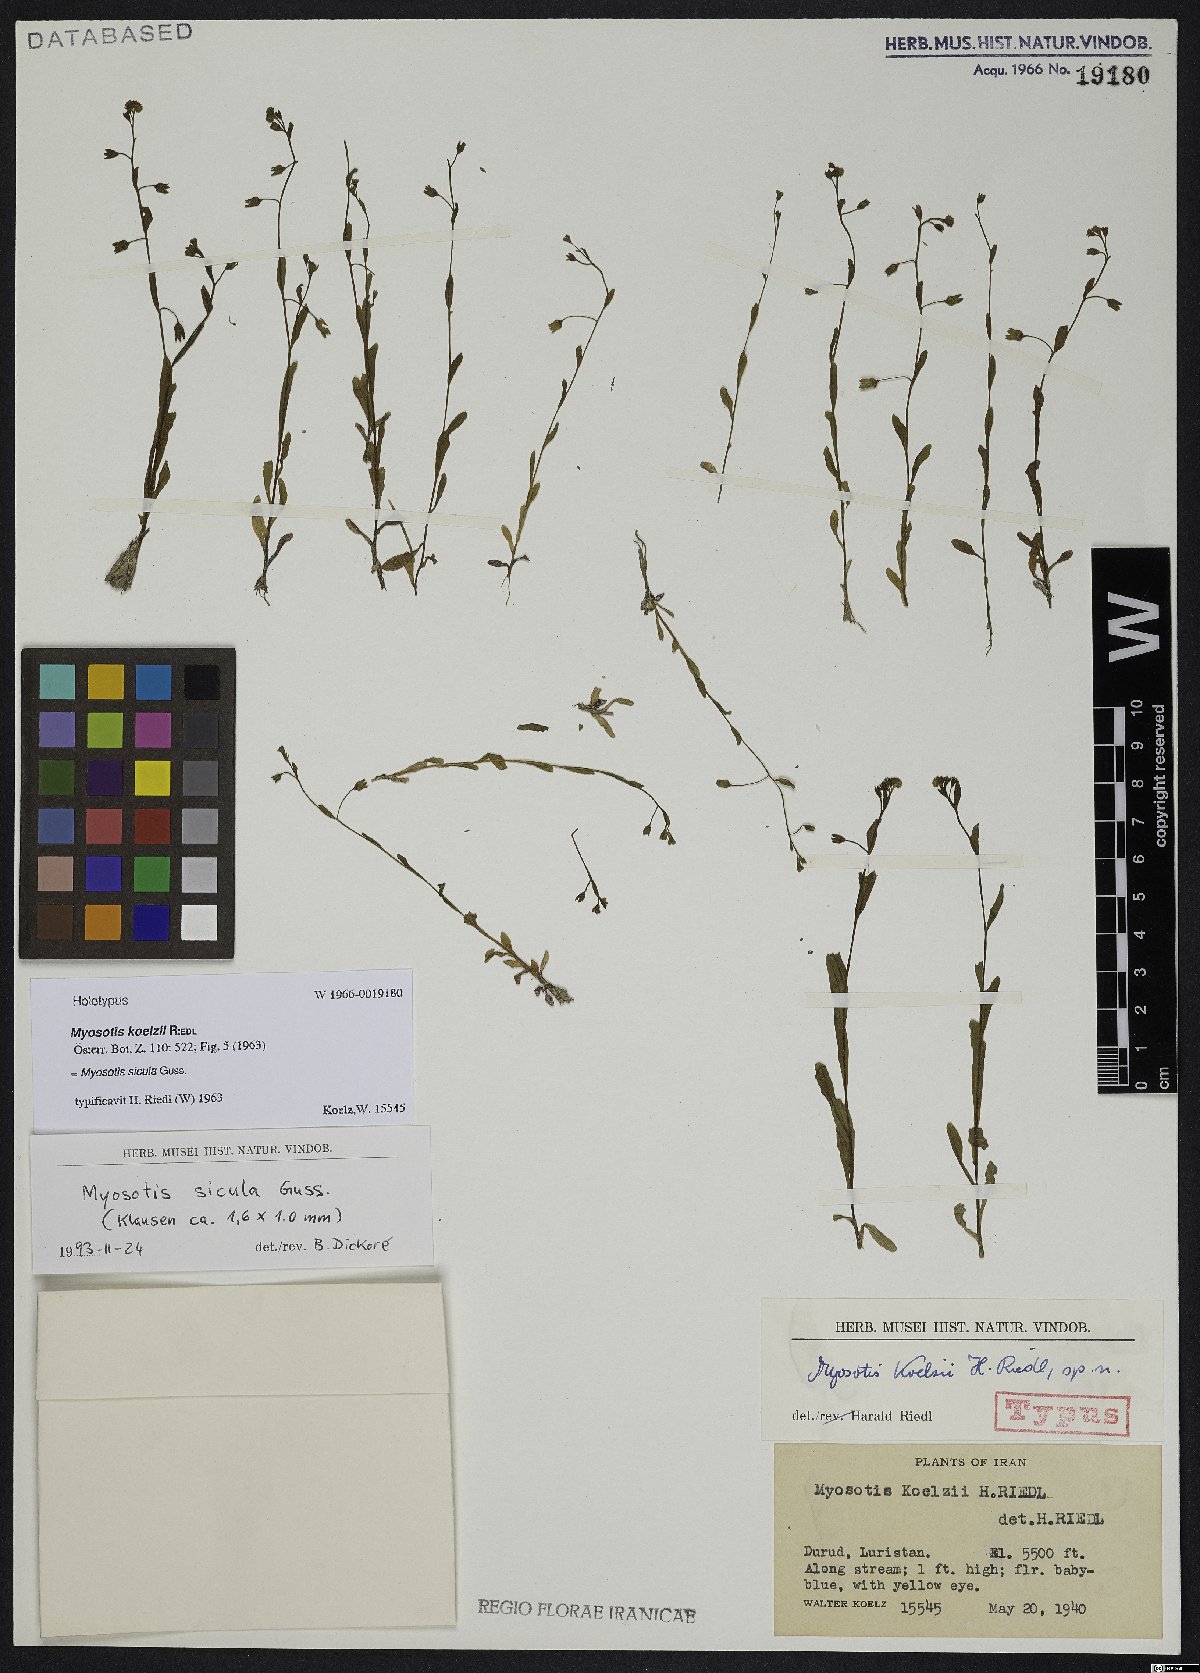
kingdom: Plantae
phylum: Tracheophyta
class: Magnoliopsida
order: Boraginales
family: Boraginaceae
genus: Myosotis
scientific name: Myosotis sicula
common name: Jersey forget-me-not
